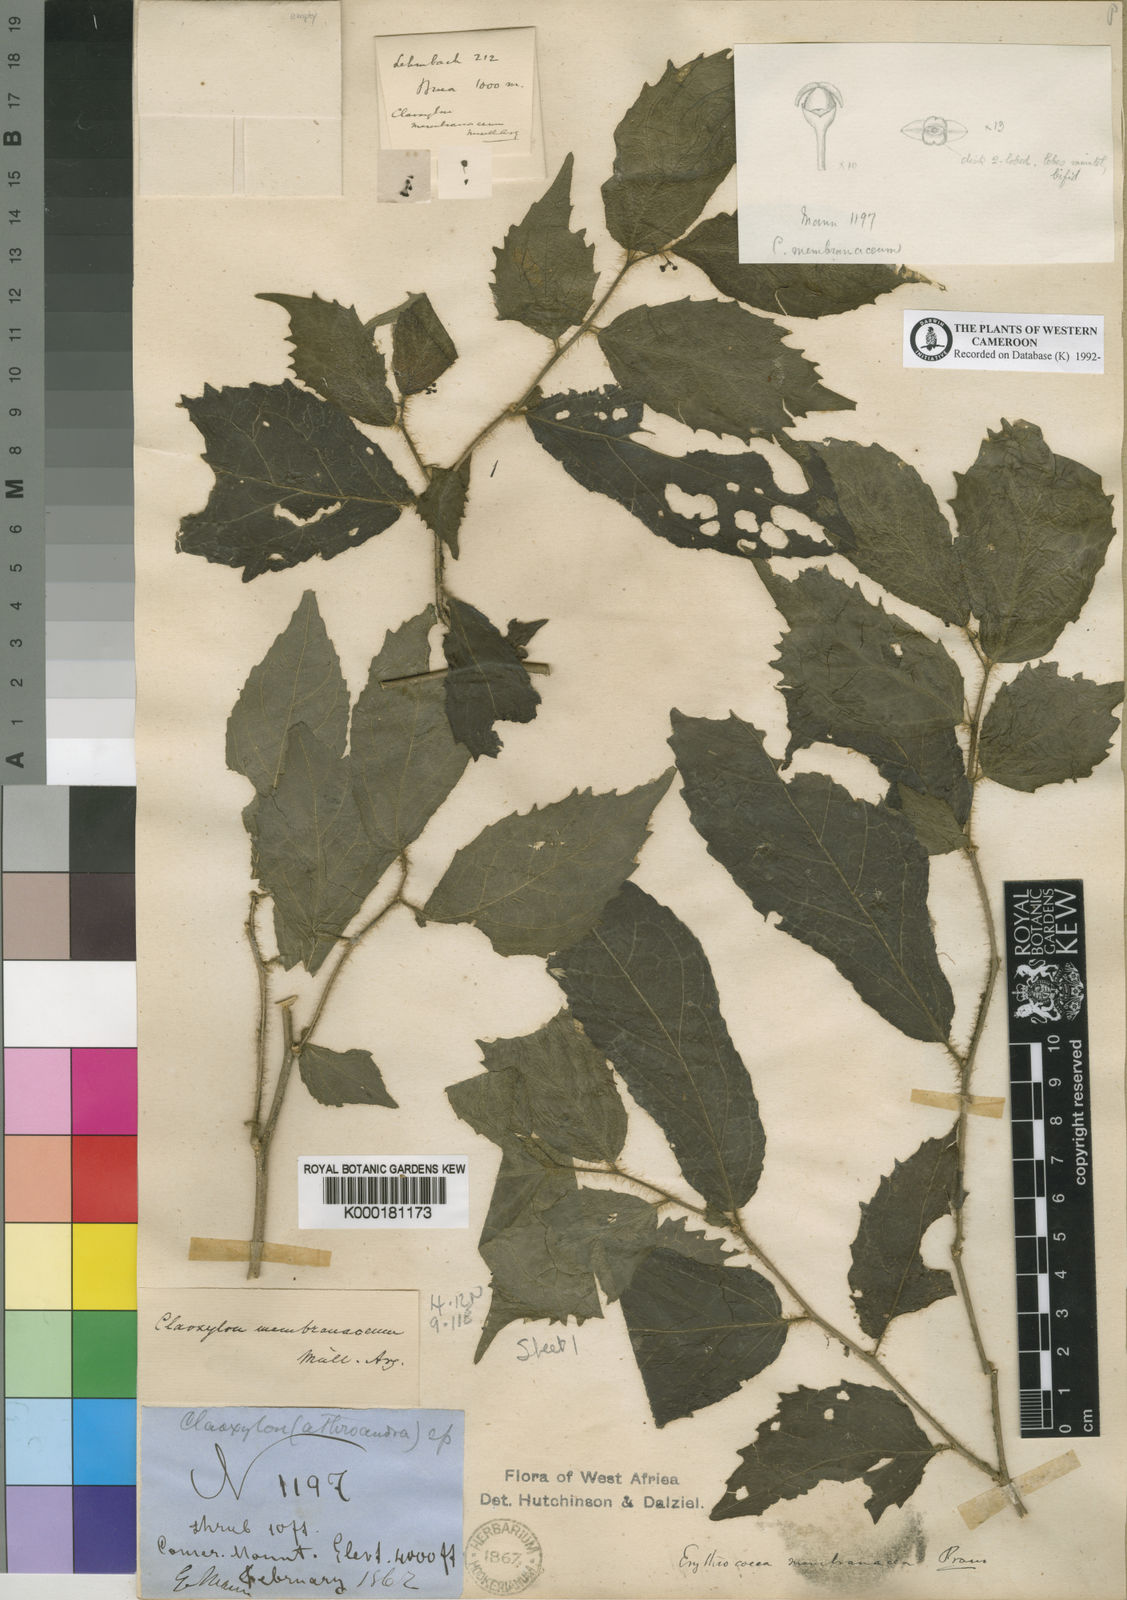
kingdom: Plantae
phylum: Tracheophyta
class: Magnoliopsida
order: Malpighiales
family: Euphorbiaceae
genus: Erythrococca
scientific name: Erythrococca
